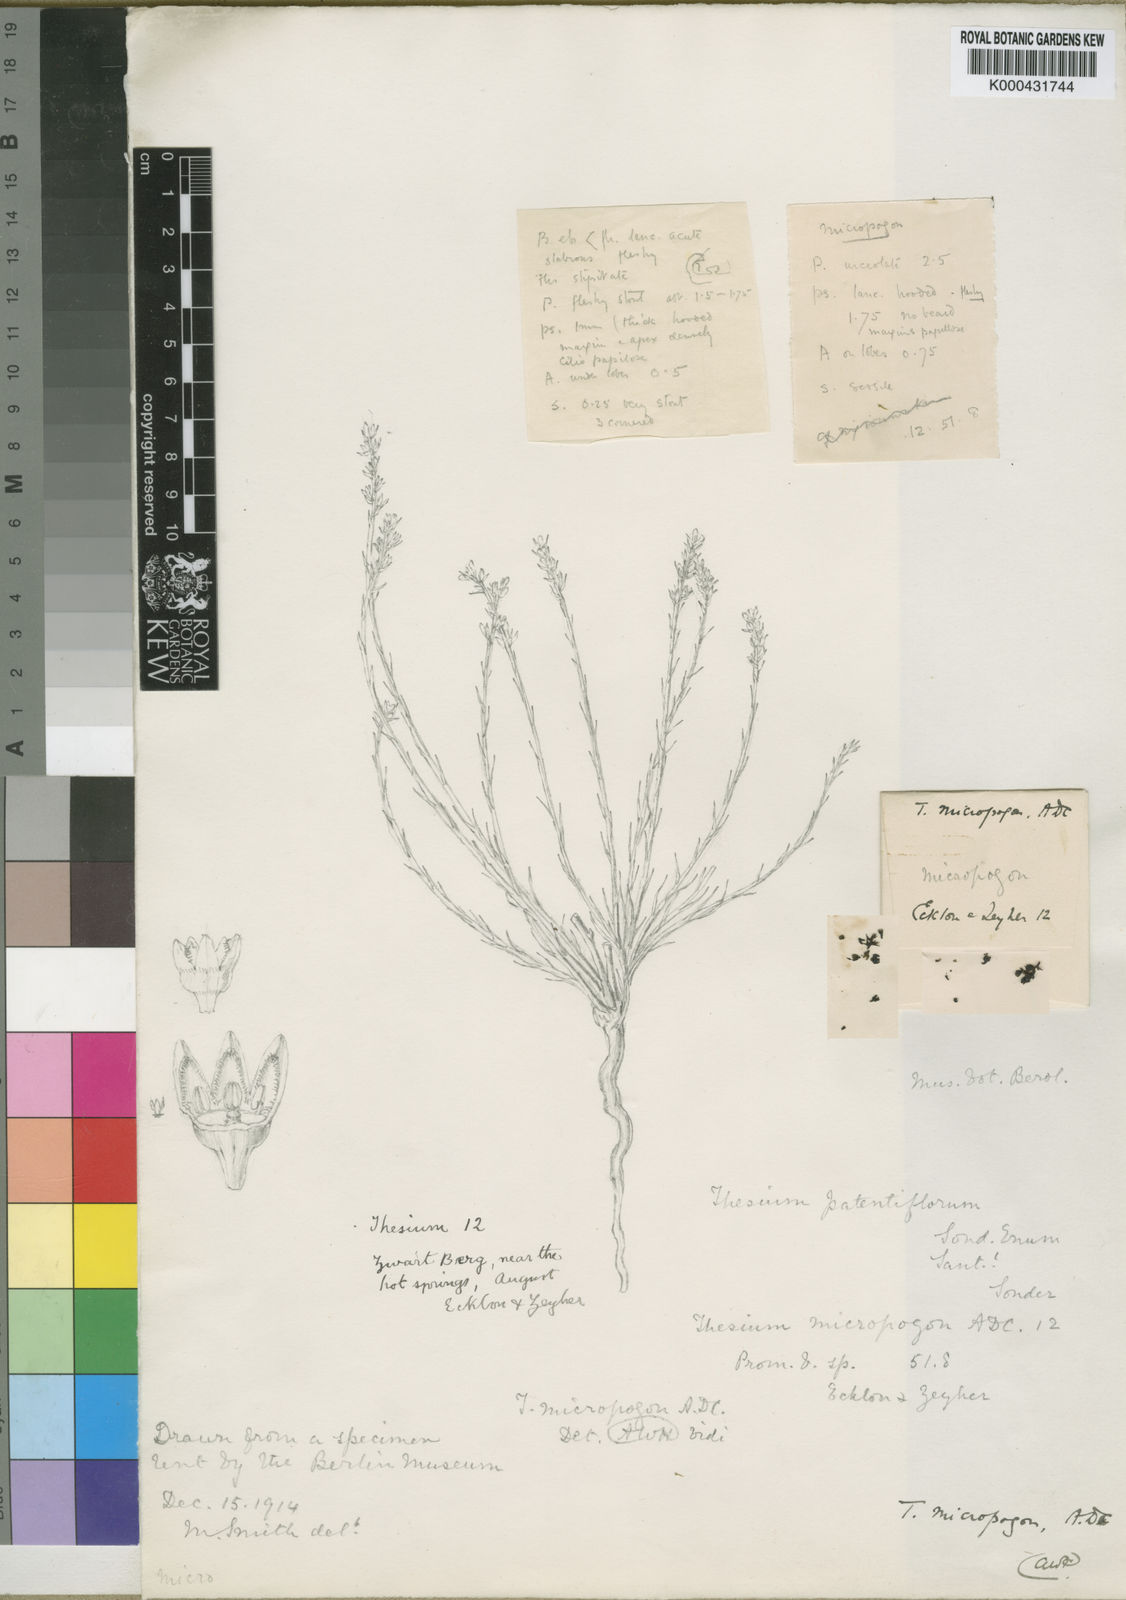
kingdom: Plantae
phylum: Tracheophyta
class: Magnoliopsida
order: Santalales
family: Thesiaceae
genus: Thesium
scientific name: Thesium micropogon
